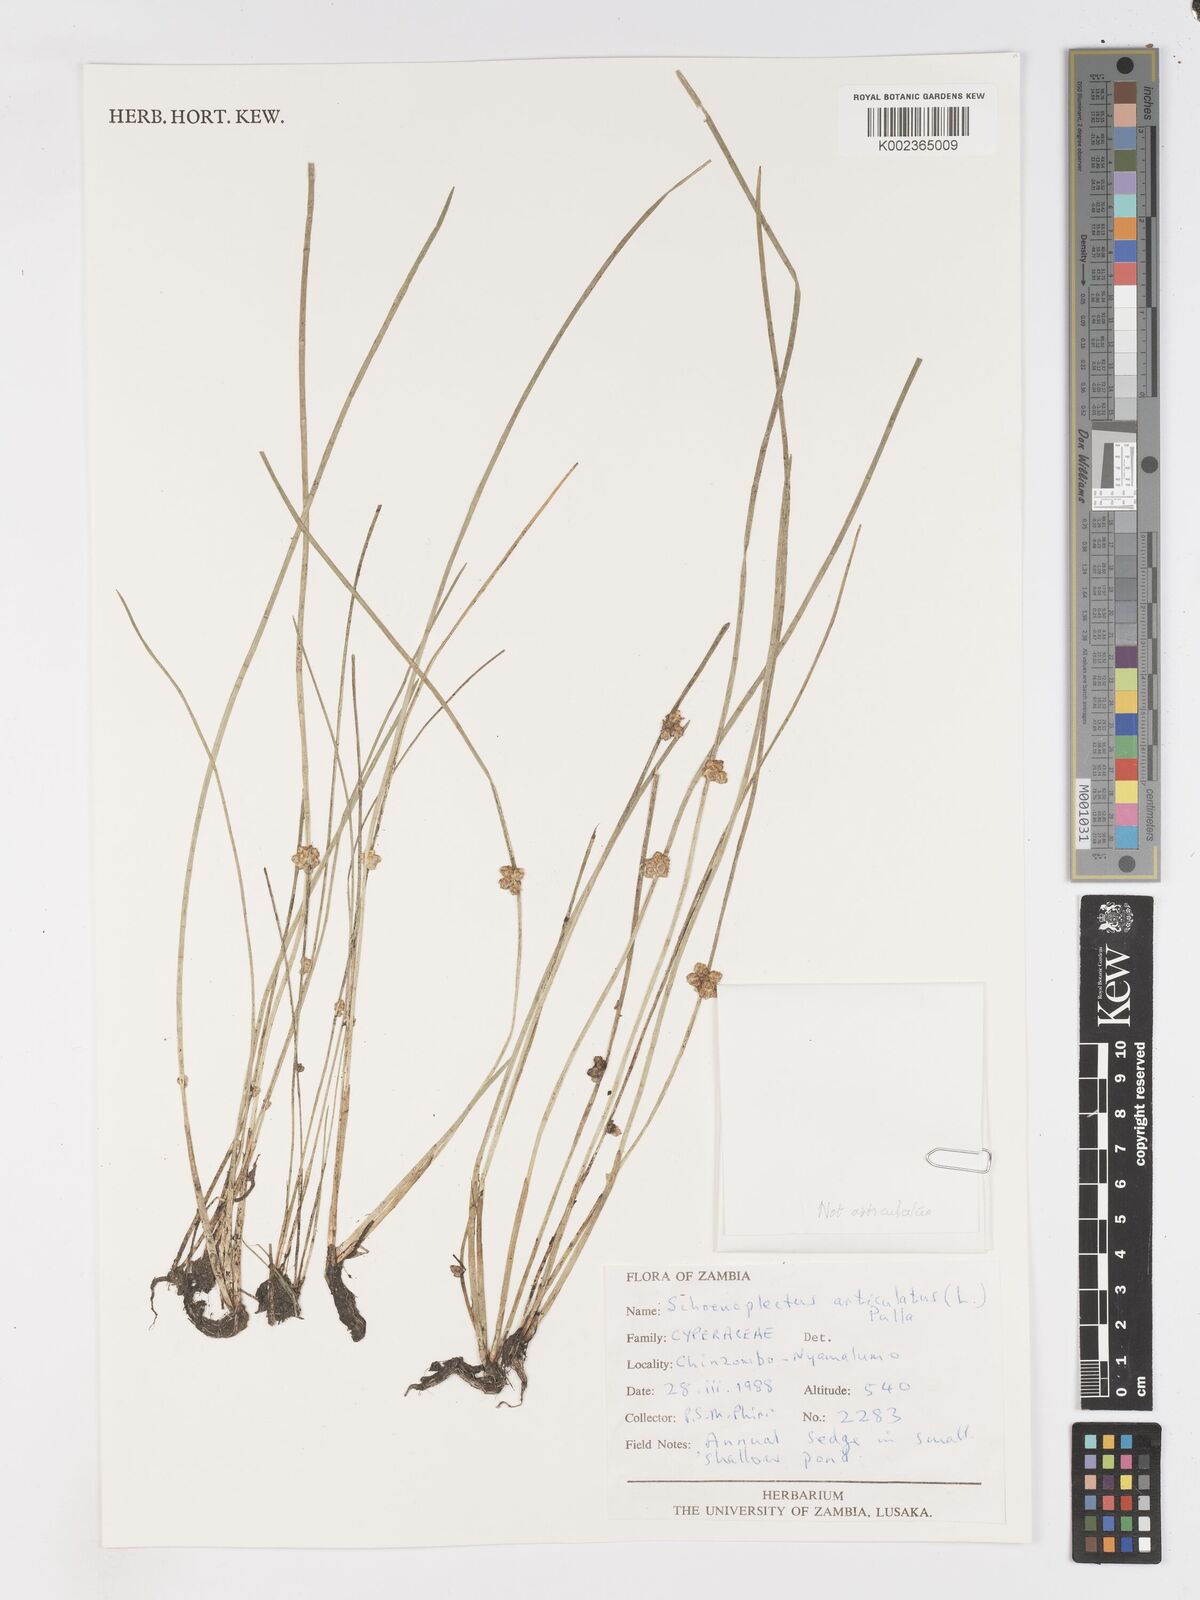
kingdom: Plantae
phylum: Tracheophyta
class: Liliopsida
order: Poales
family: Cyperaceae
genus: Schoenoplectiella
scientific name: Schoenoplectiella articulata
